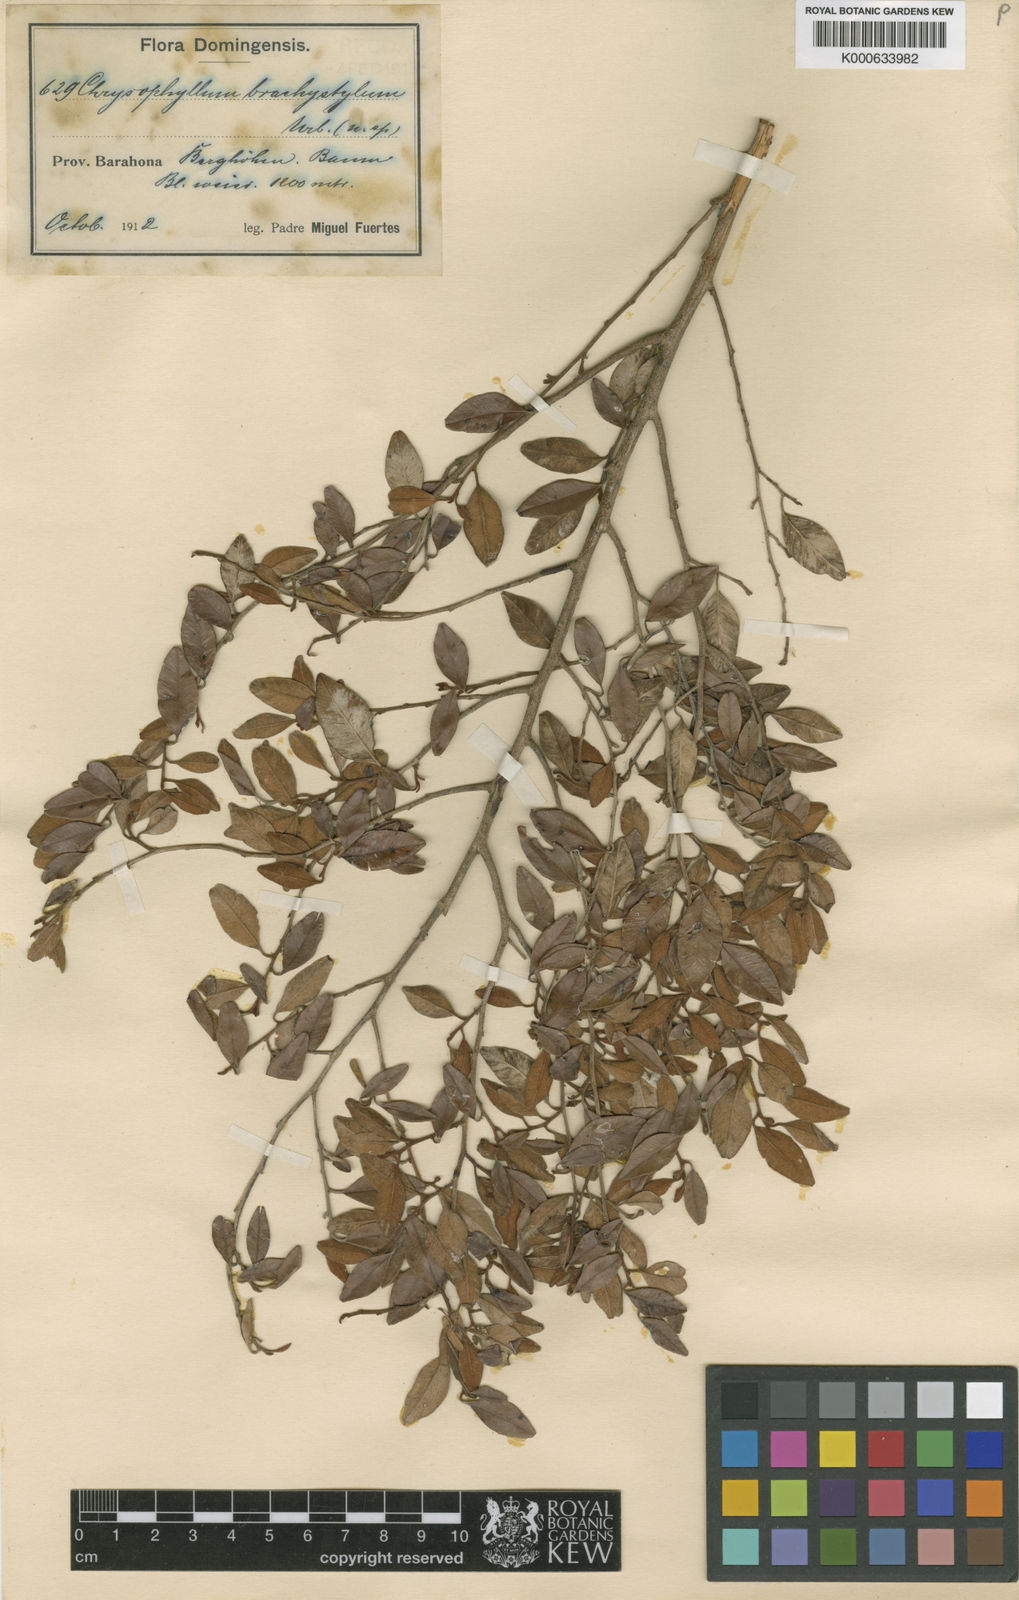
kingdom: Plantae
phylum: Tracheophyta
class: Magnoliopsida
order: Ericales
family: Sapotaceae
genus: Chrysophyllum
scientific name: Chrysophyllum oliviforme
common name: Satinleaf
